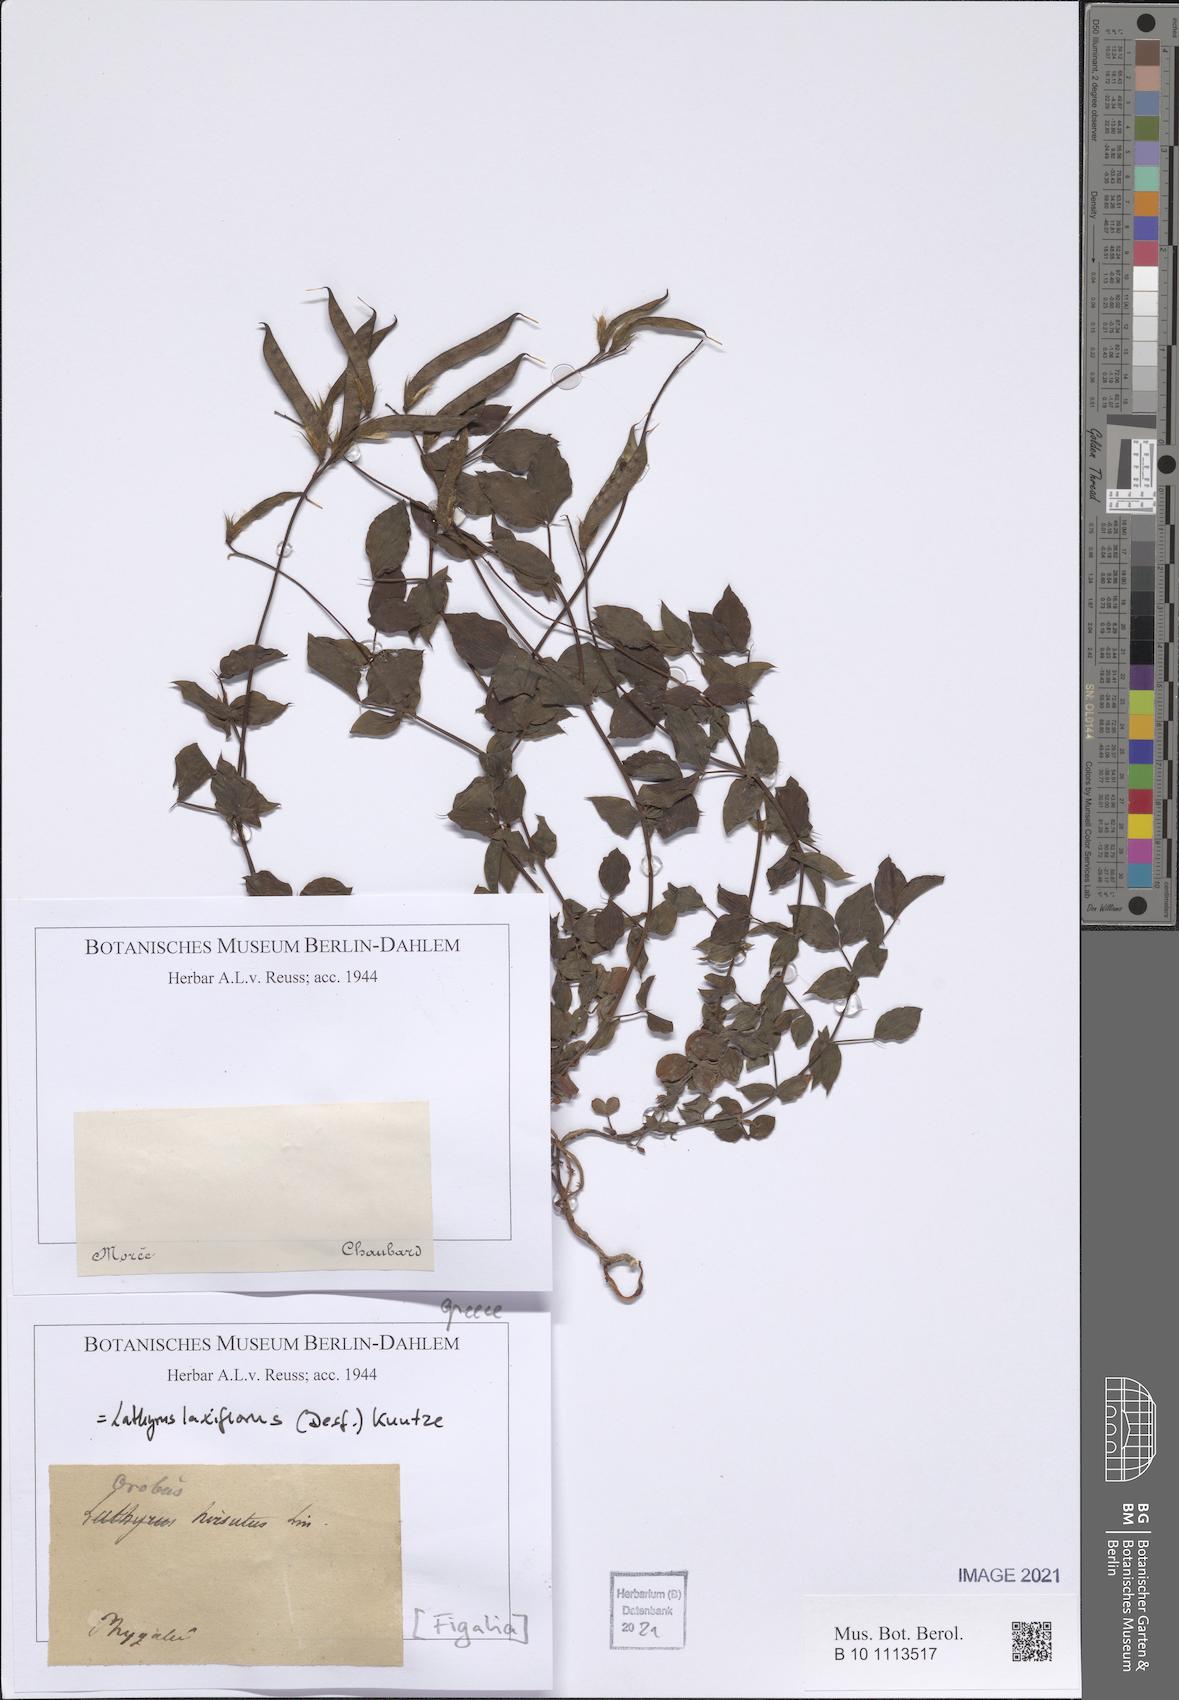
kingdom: Plantae
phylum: Tracheophyta
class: Magnoliopsida
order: Fabales
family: Fabaceae
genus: Lathyrus
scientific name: Lathyrus laxiflorus
